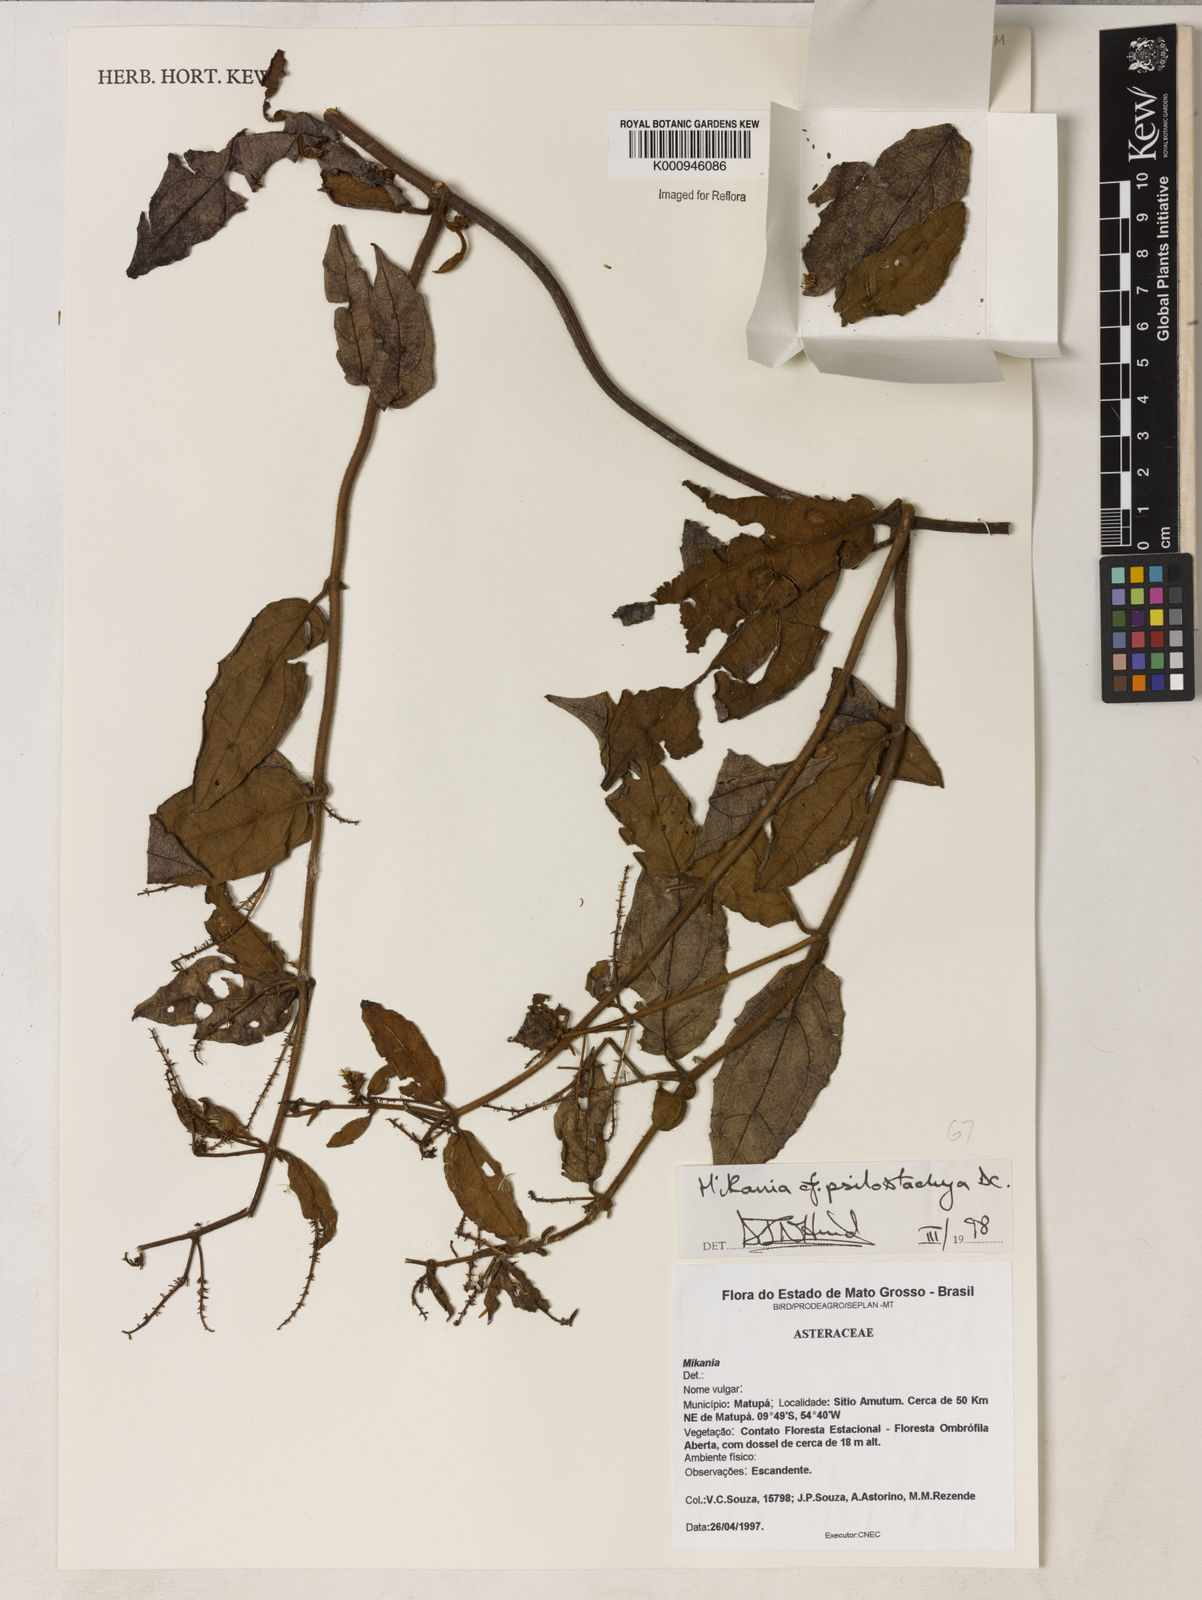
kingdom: Plantae
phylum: Tracheophyta
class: Magnoliopsida
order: Asterales
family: Asteraceae
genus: Mikania
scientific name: Mikania psilostachya
